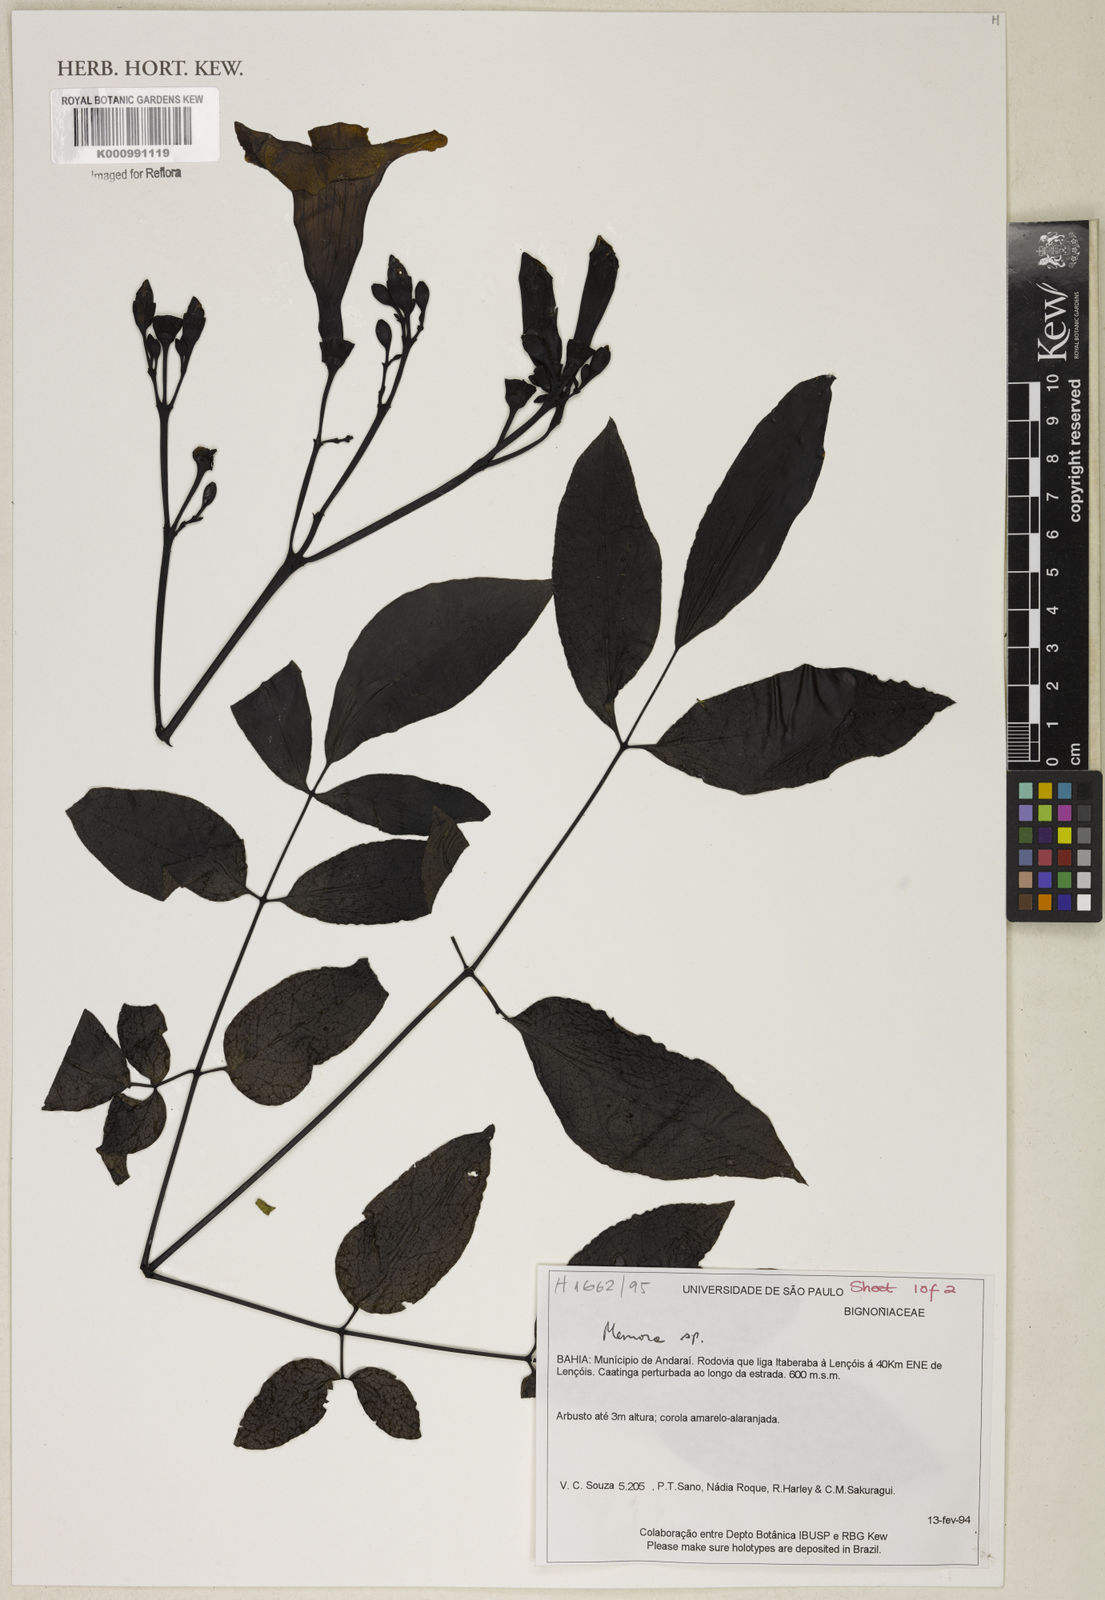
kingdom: Plantae
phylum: Tracheophyta
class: Magnoliopsida
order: Lamiales
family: Bignoniaceae
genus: Adenocalymma
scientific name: Adenocalymma
